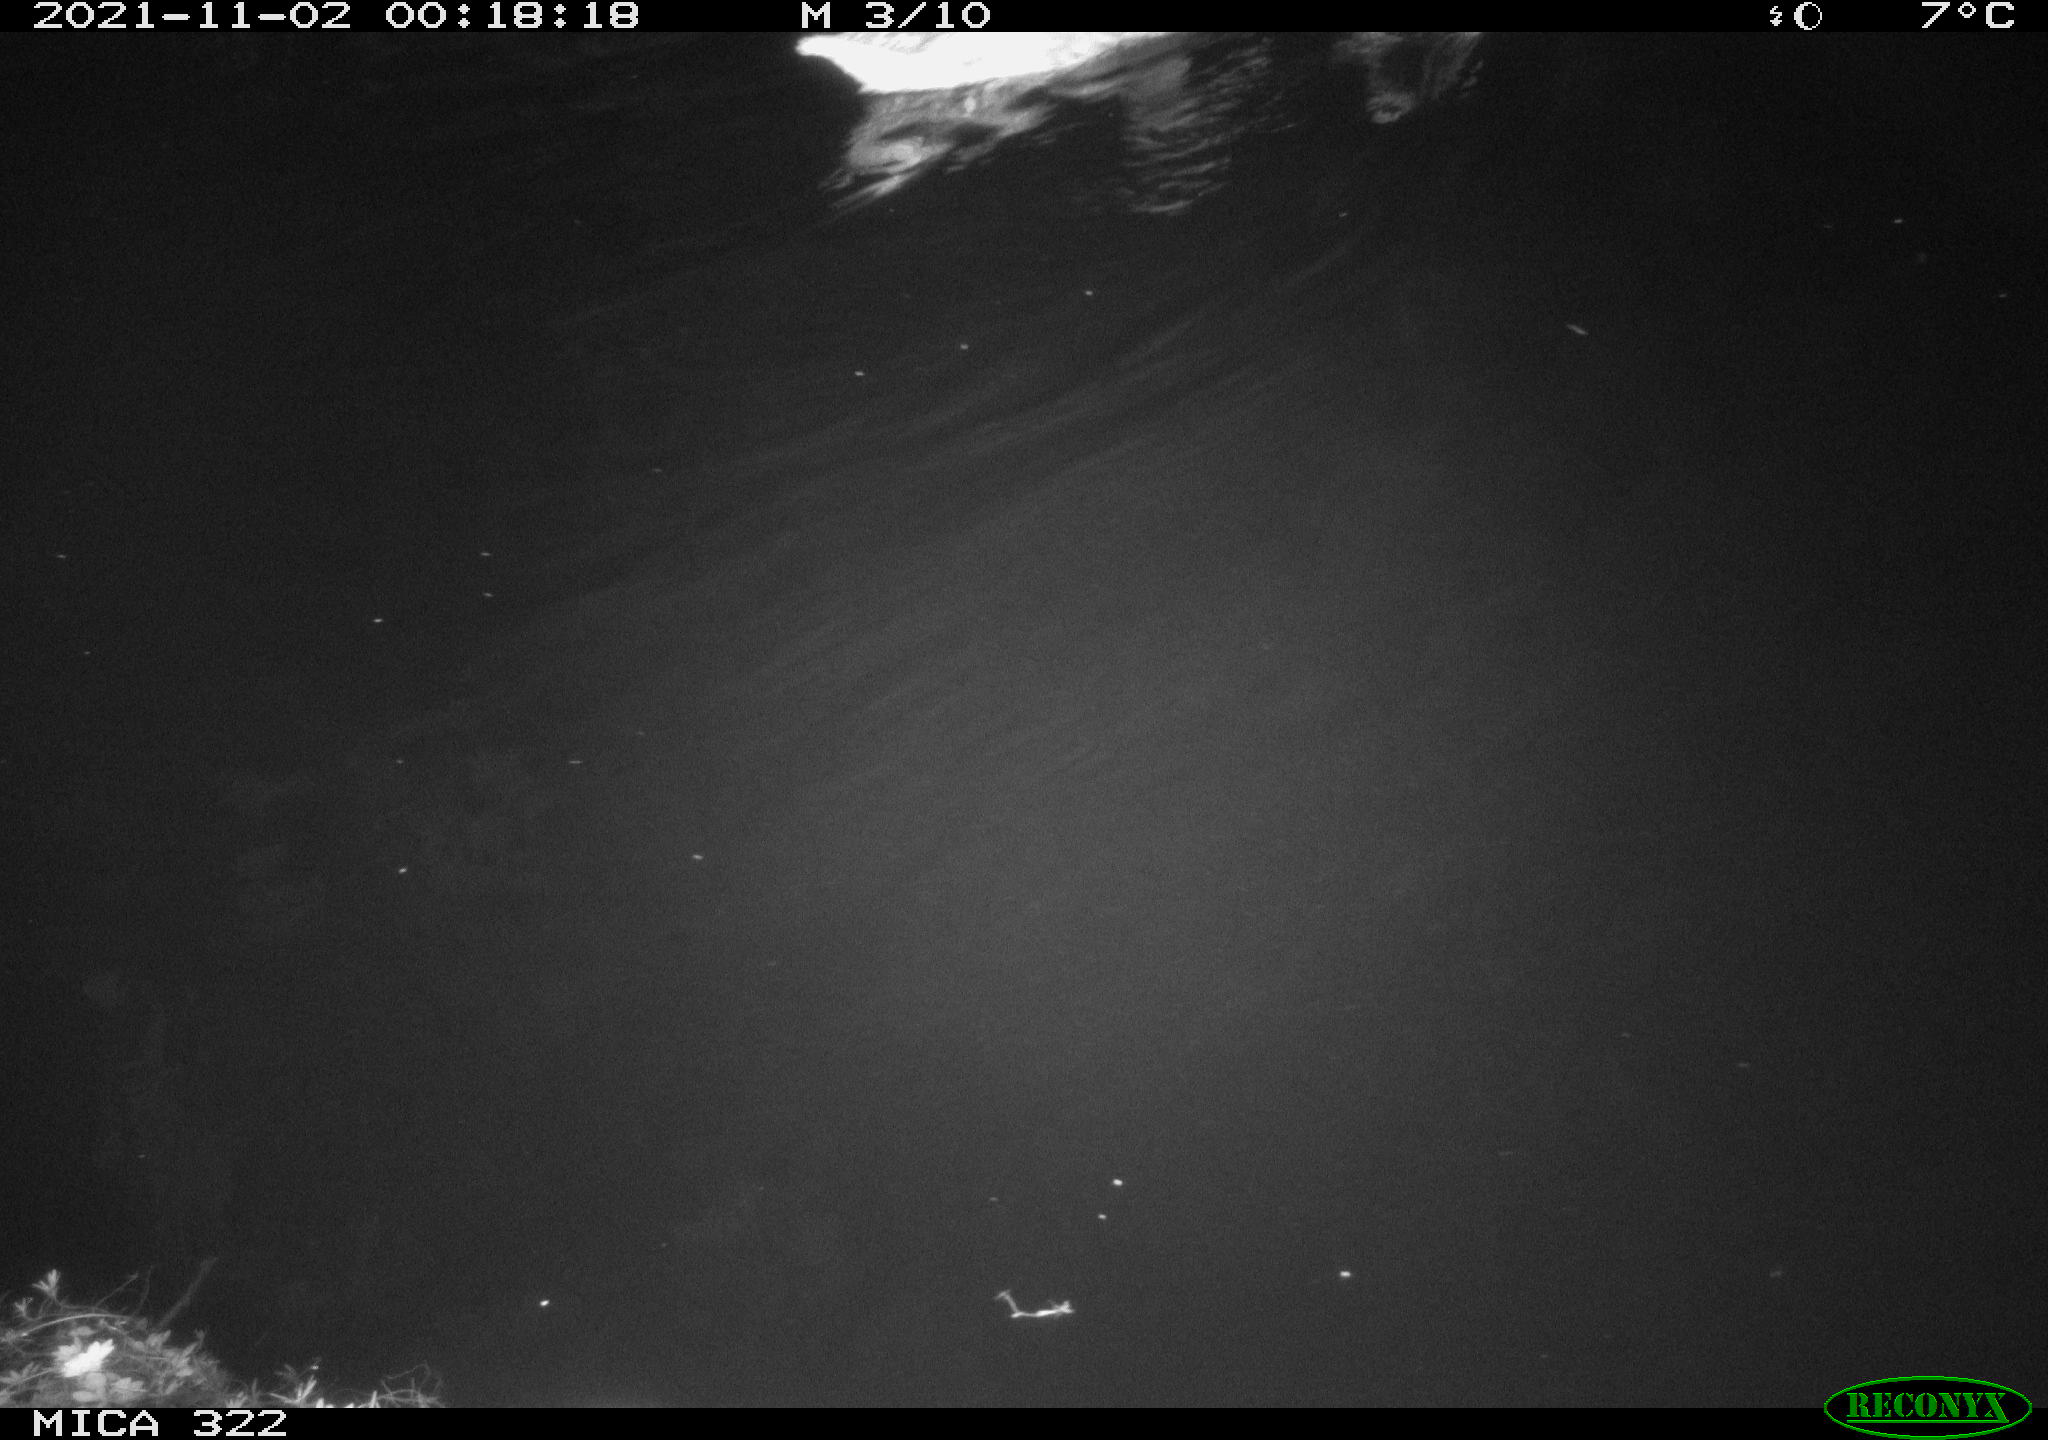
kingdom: Animalia
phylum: Chordata
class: Aves
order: Anseriformes
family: Anatidae
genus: Anas
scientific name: Anas platyrhynchos
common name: Mallard
